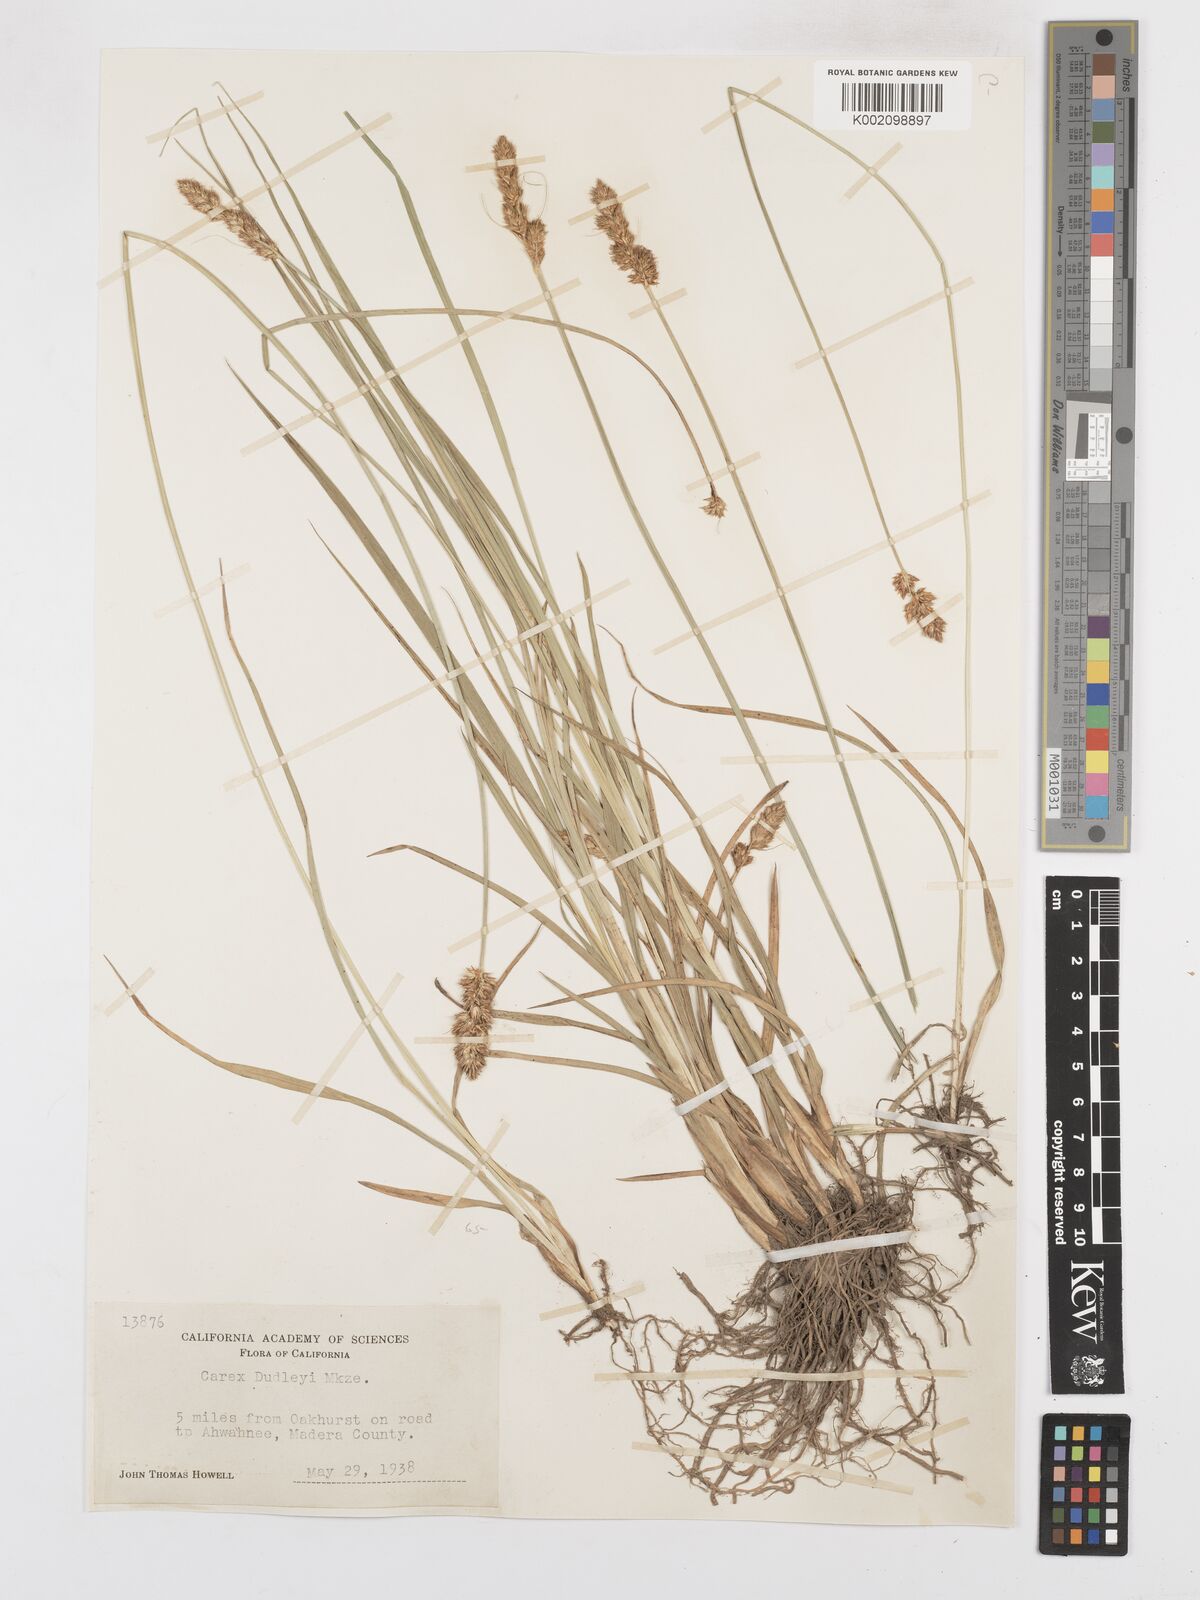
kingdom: Plantae
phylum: Tracheophyta
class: Liliopsida
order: Poales
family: Cyperaceae
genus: Carex
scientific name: Carex densa
